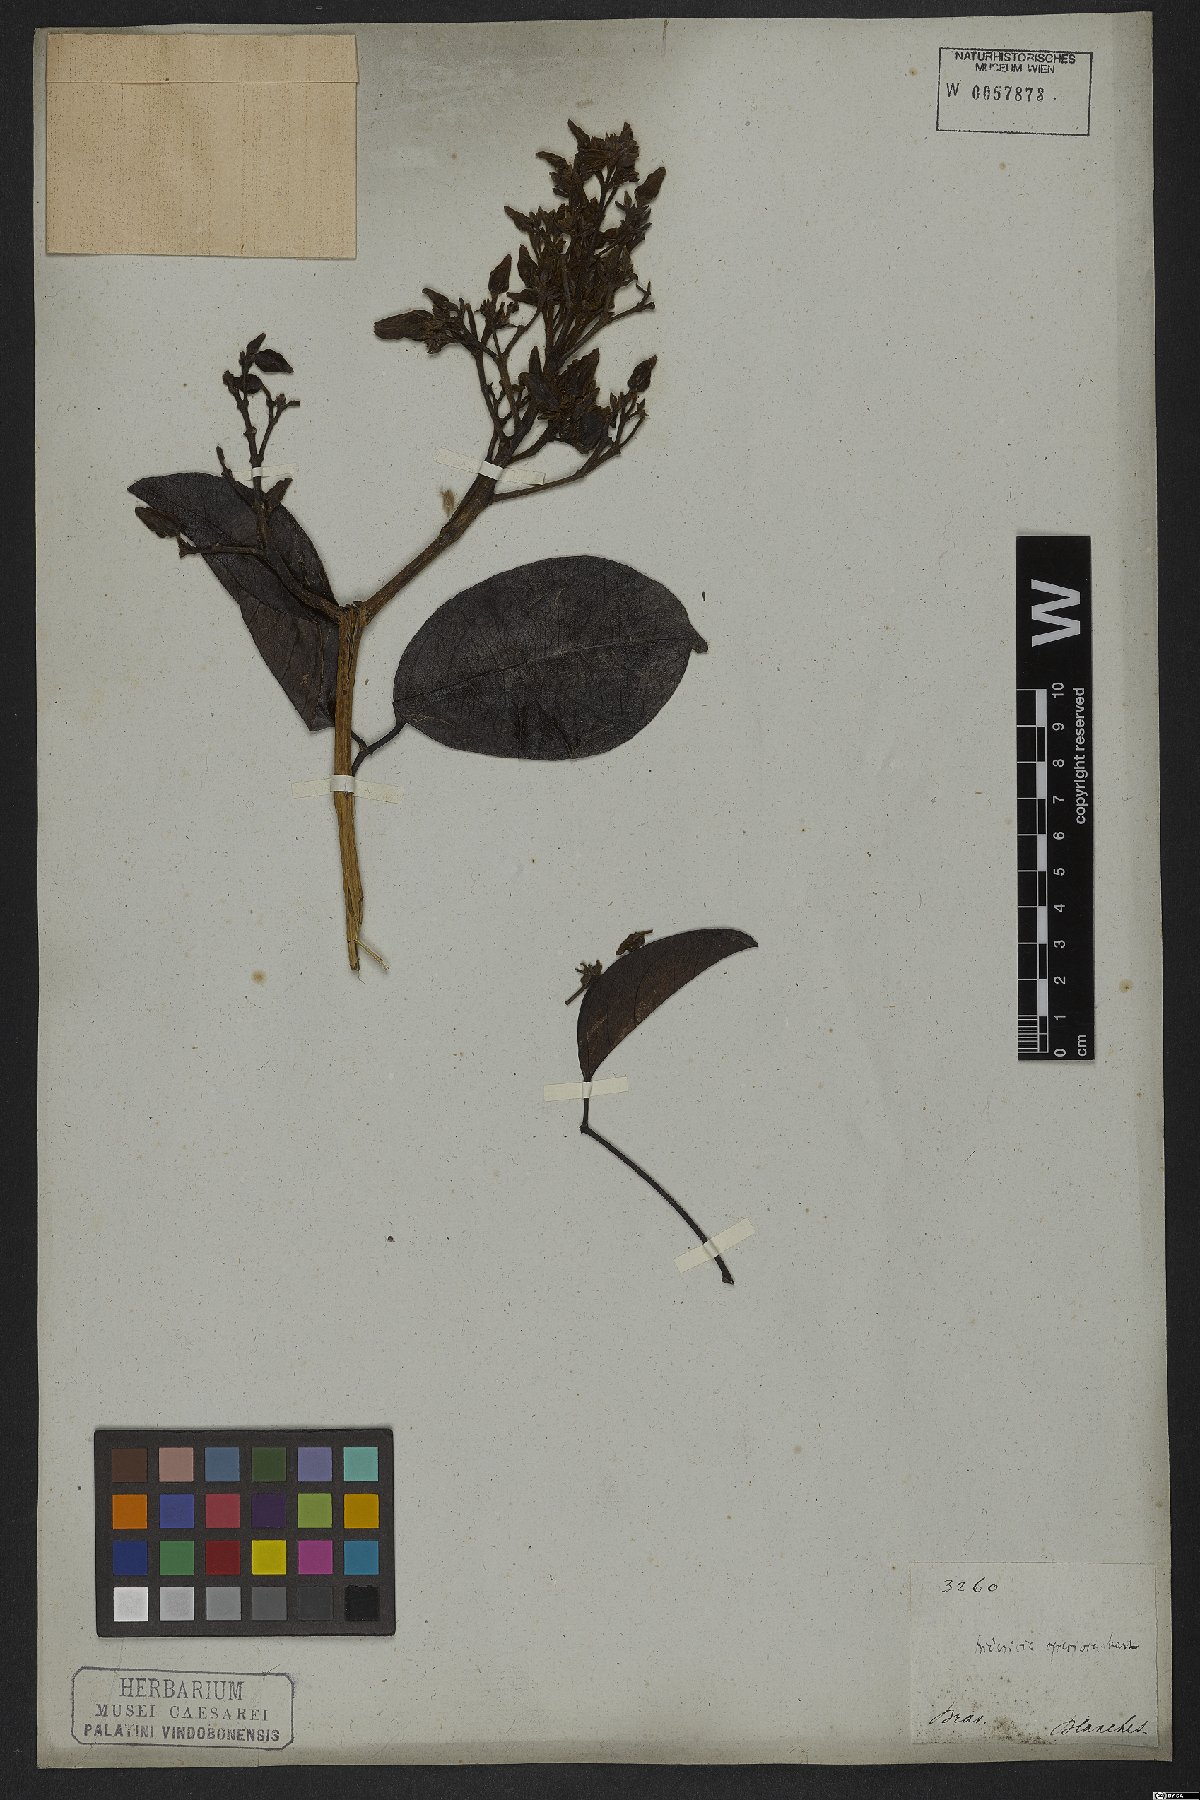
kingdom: Plantae
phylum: Tracheophyta
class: Magnoliopsida
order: Lamiales
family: Bignoniaceae
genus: Fridericia
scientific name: Fridericia speciosa
